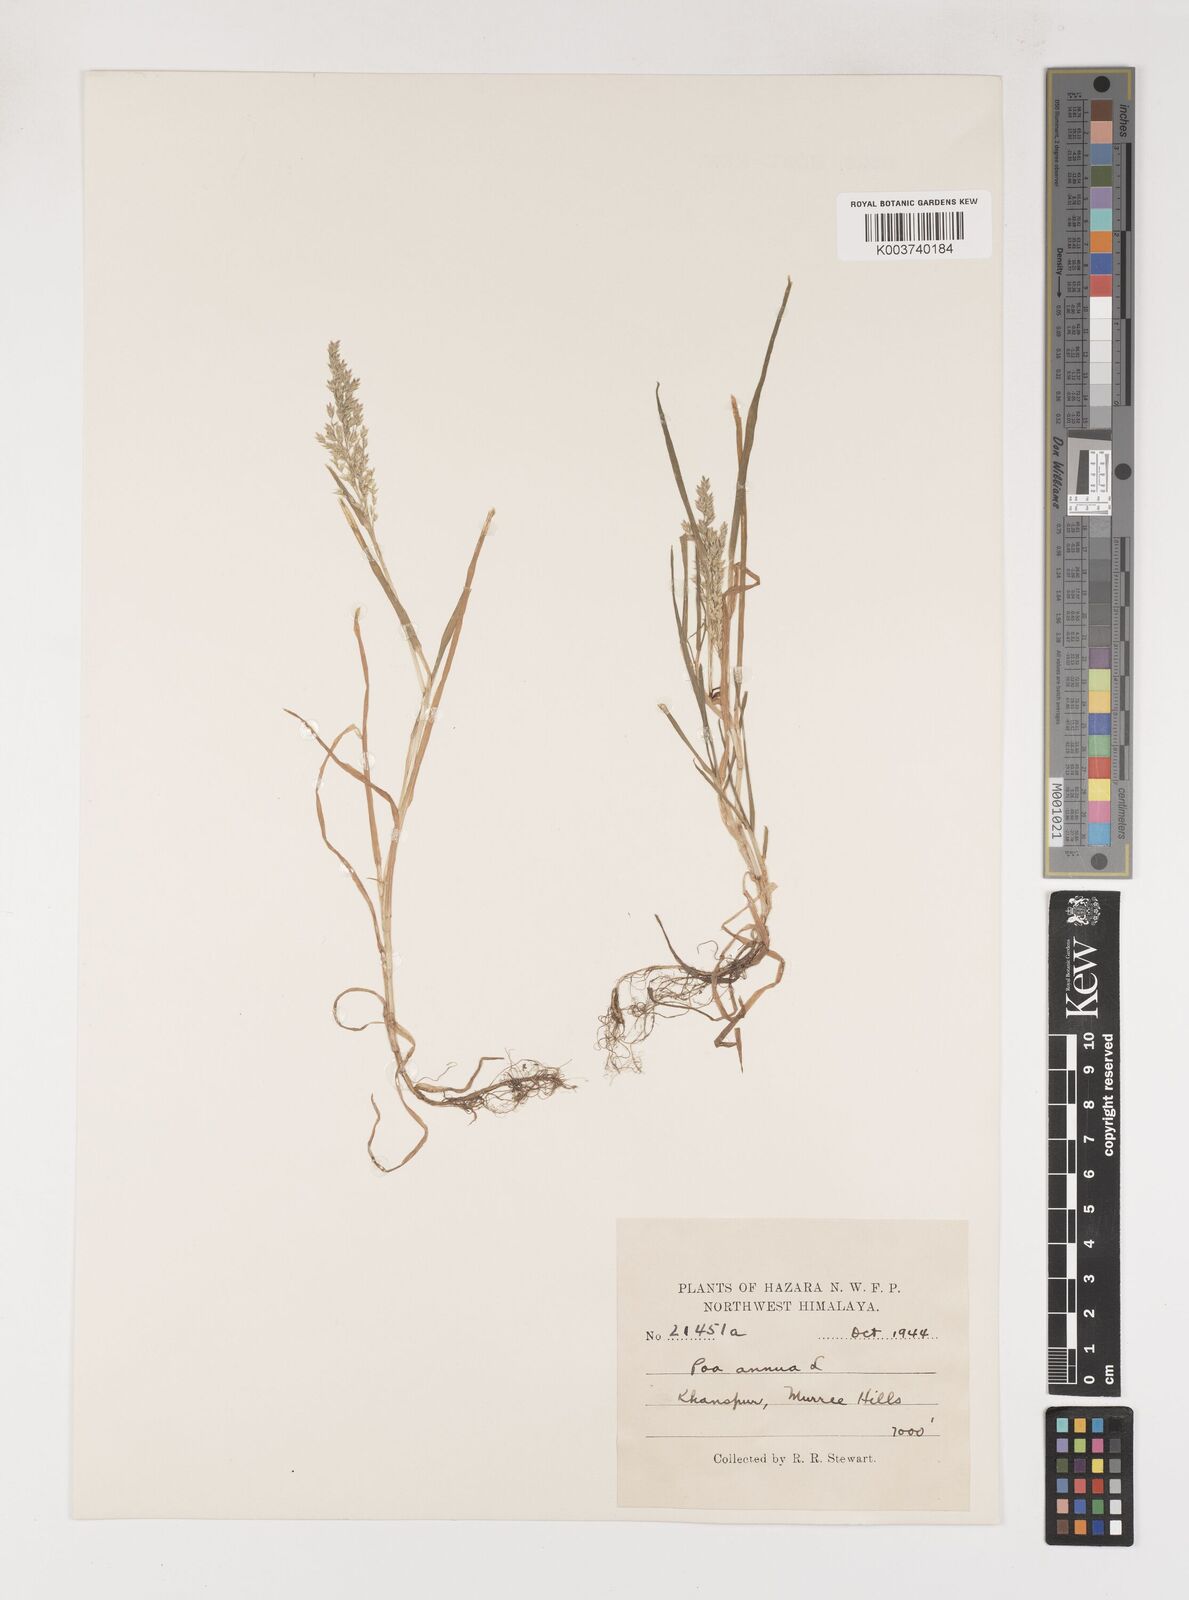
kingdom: Plantae
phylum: Tracheophyta
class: Liliopsida
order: Poales
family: Poaceae
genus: Poa
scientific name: Poa annua
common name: Annual bluegrass
